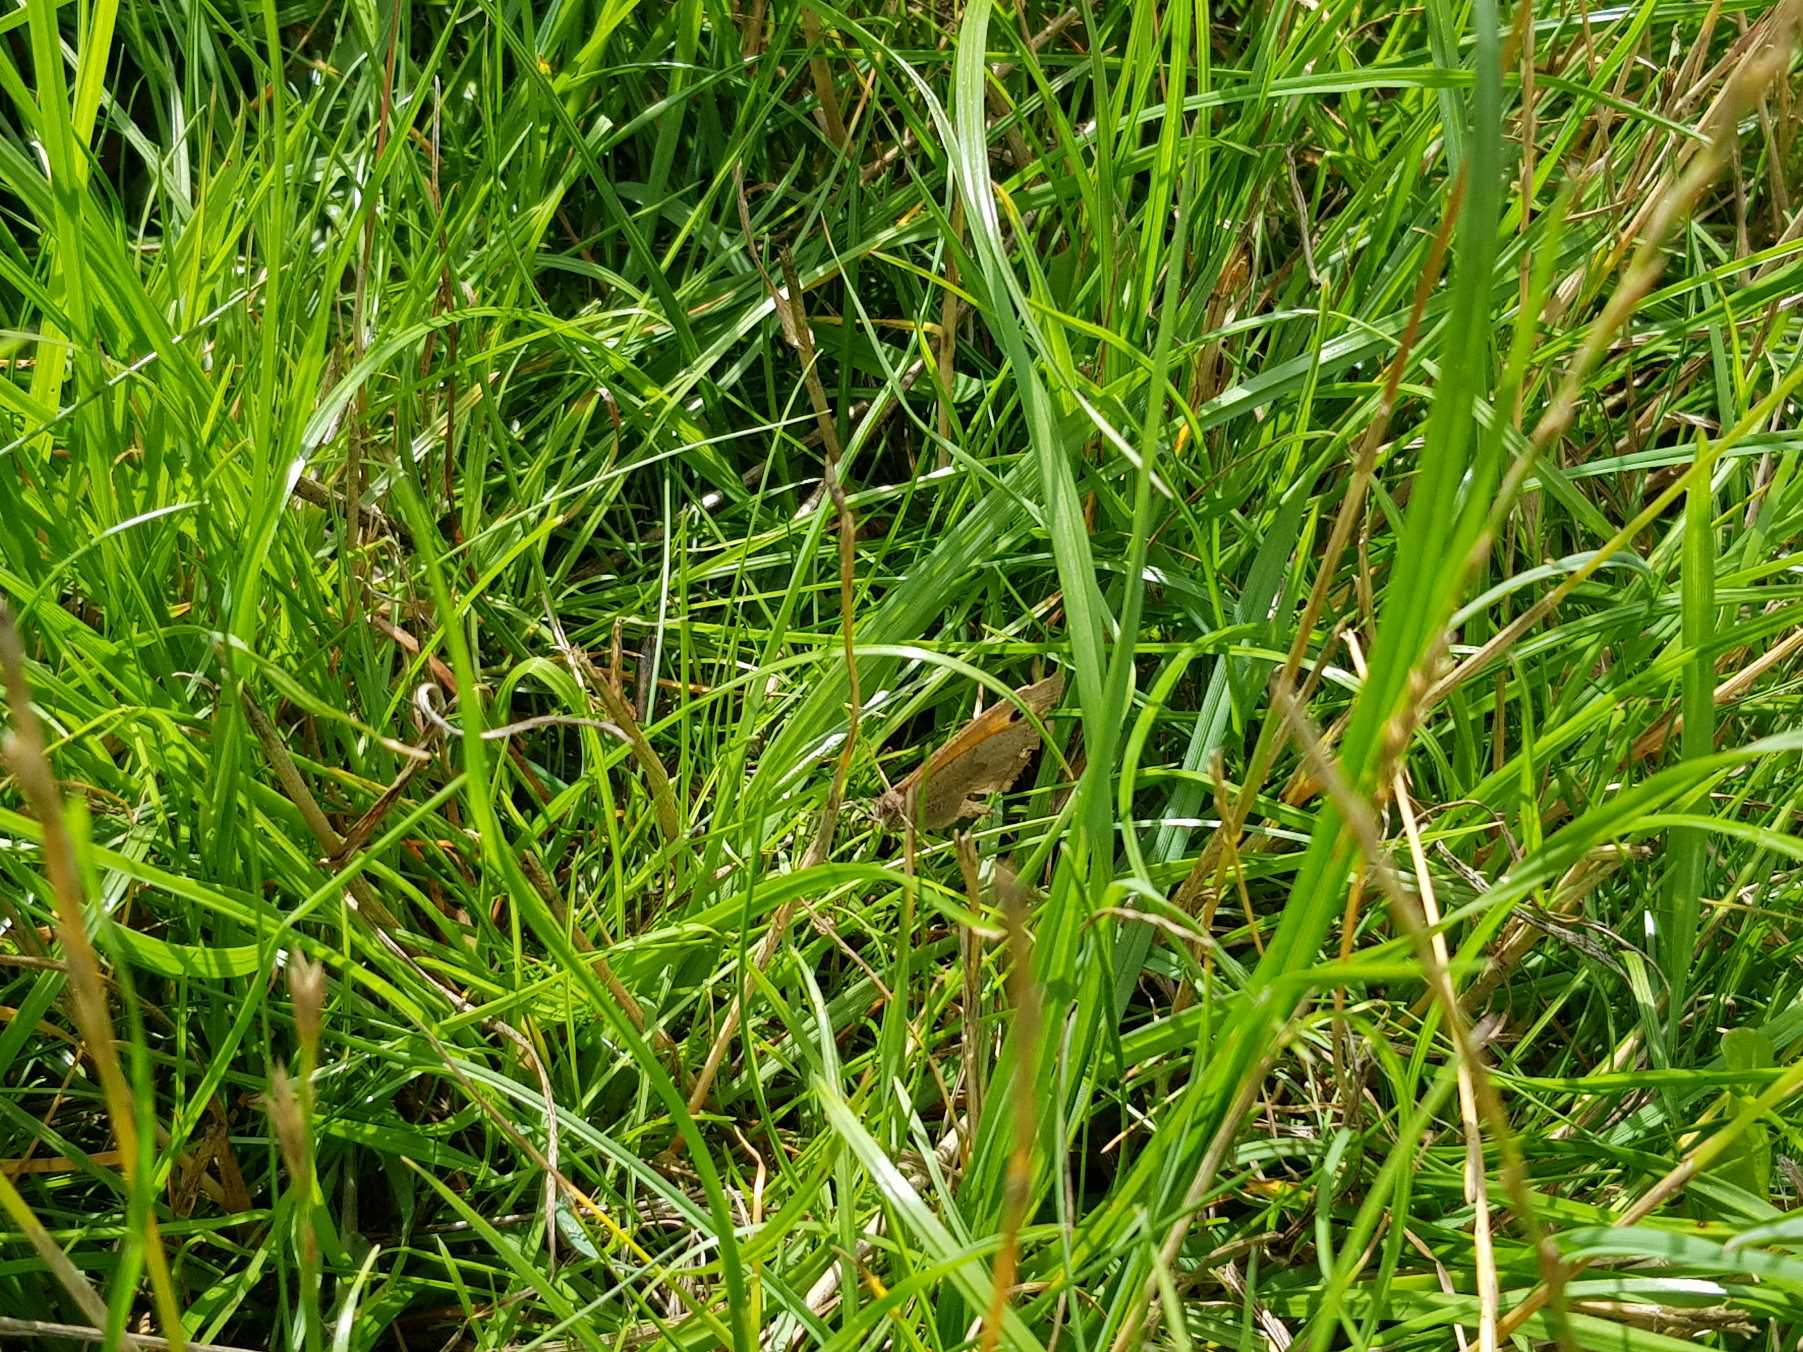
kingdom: Animalia
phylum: Arthropoda
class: Insecta
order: Lepidoptera
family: Nymphalidae
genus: Maniola
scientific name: Maniola jurtina
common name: Græsrandøje
